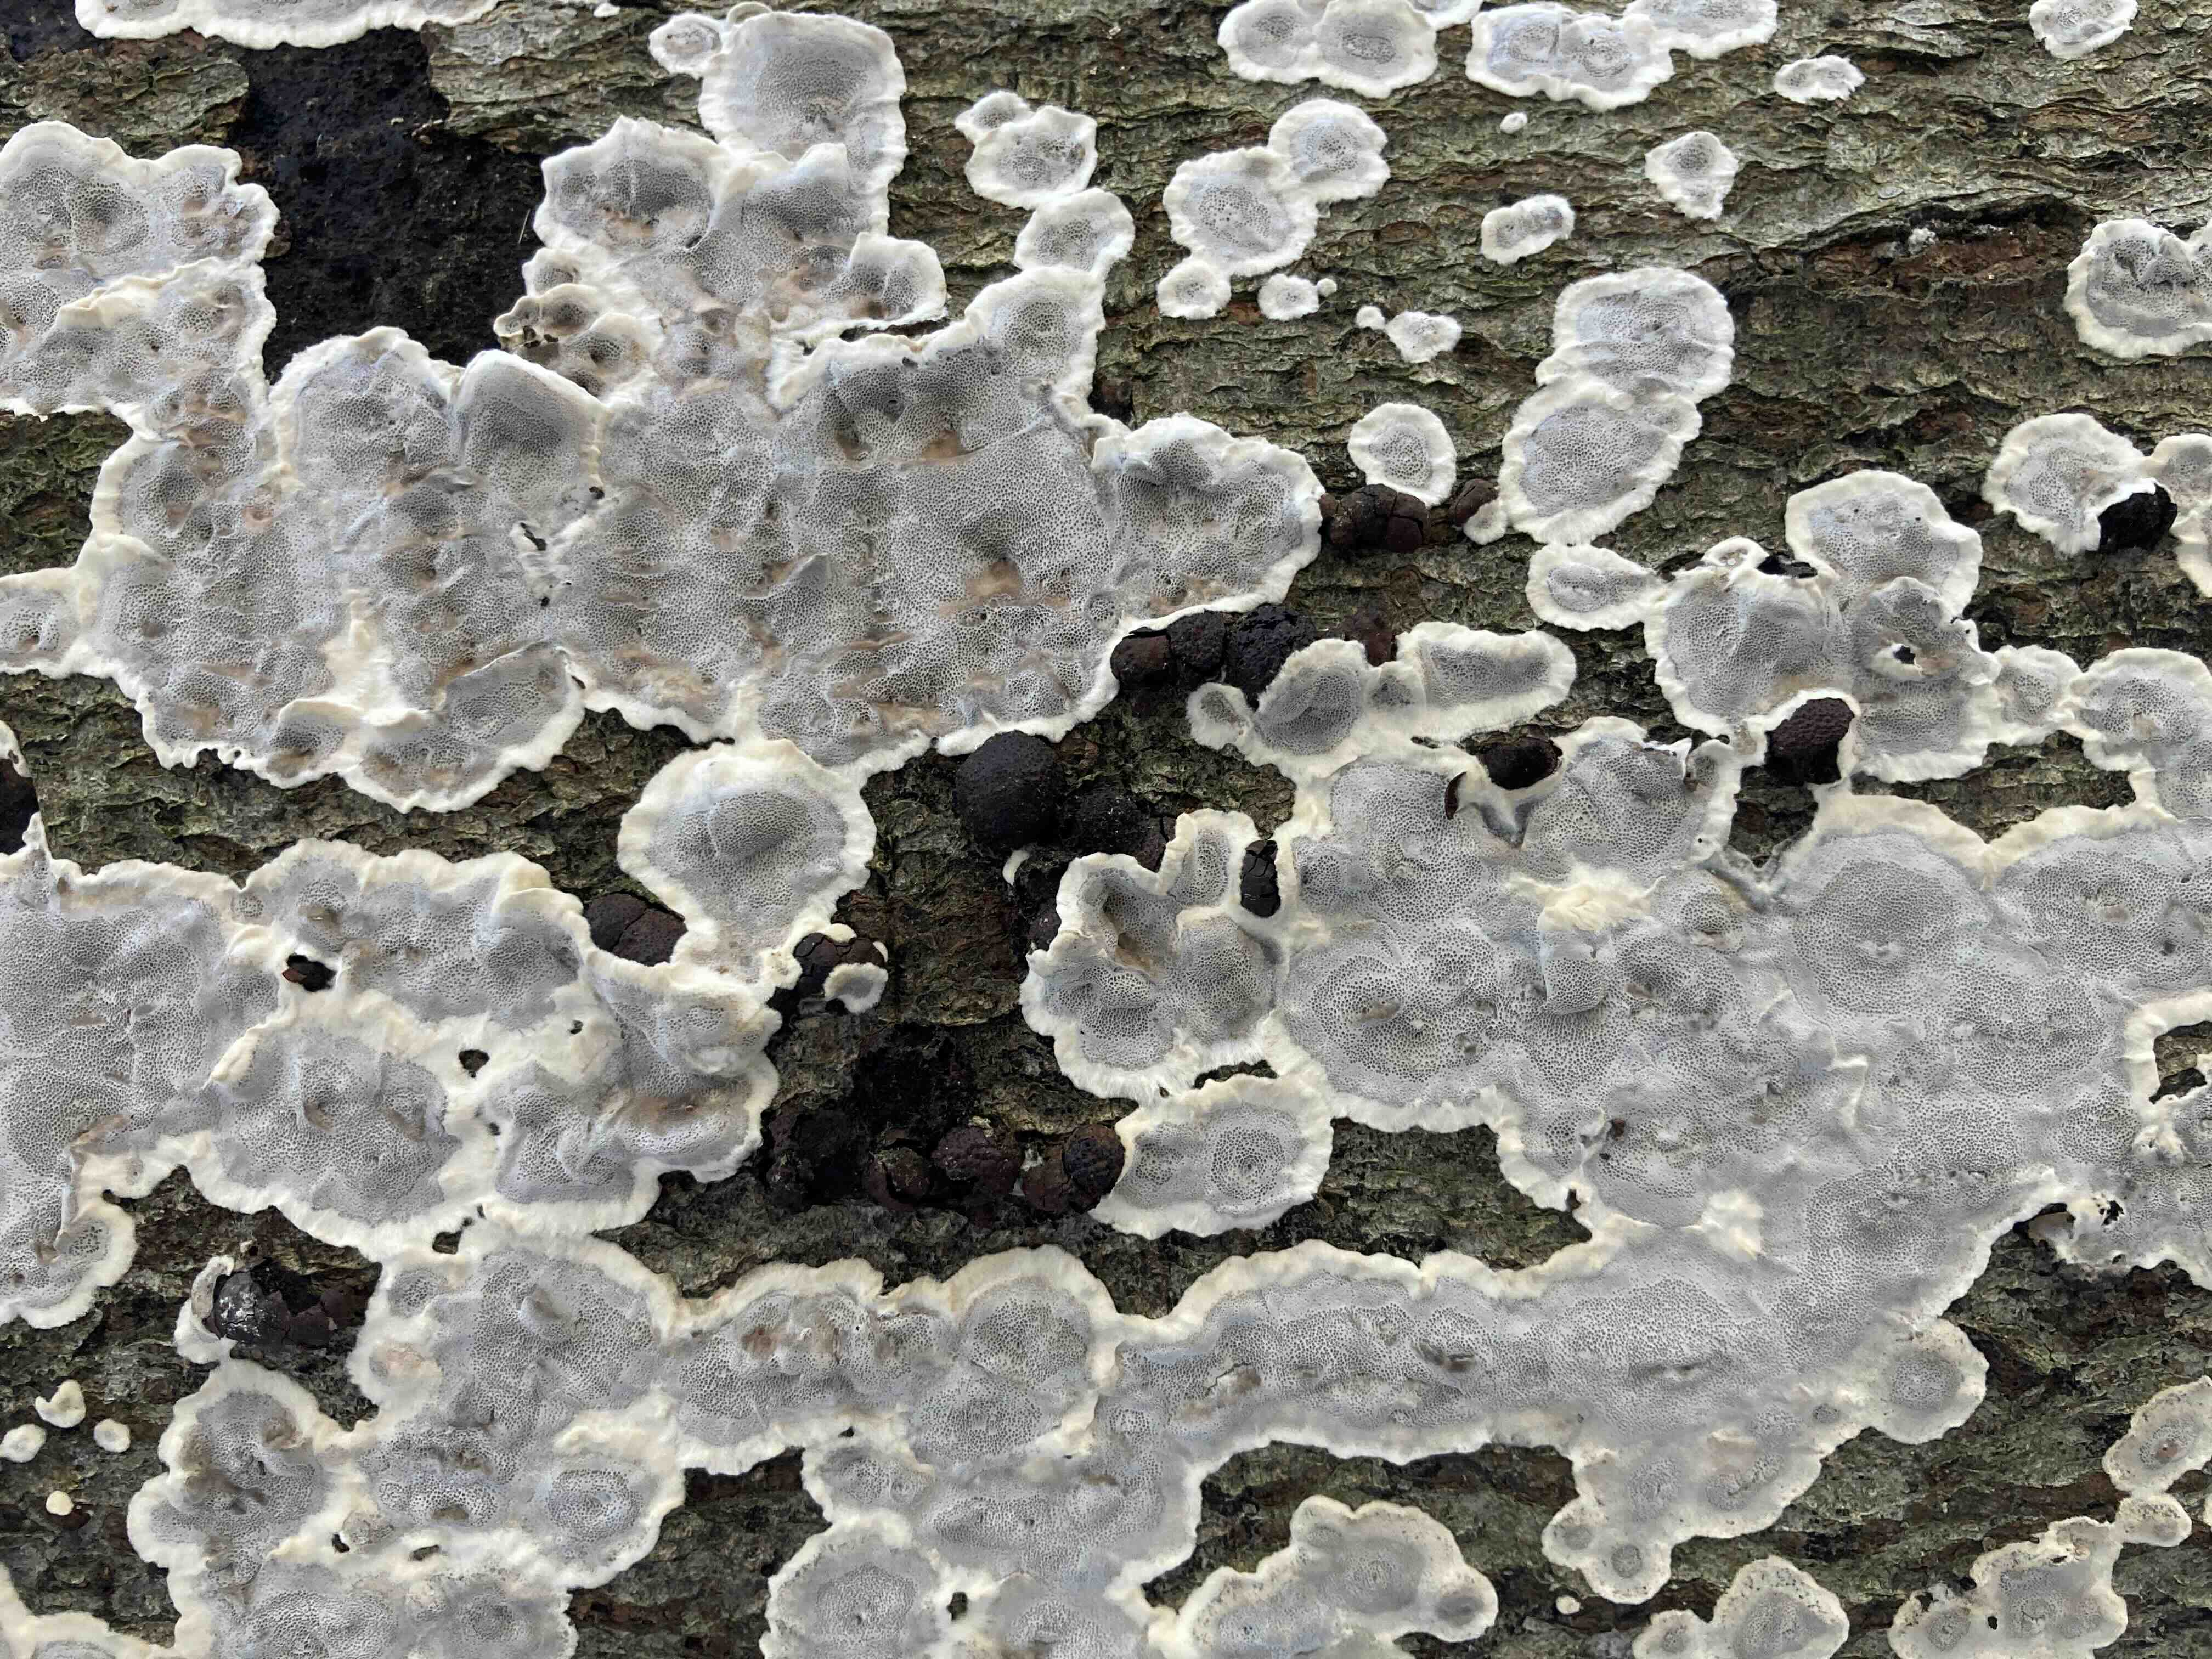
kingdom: Fungi
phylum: Basidiomycota
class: Agaricomycetes
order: Polyporales
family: Phanerochaetaceae
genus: Bjerkandera
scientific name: Bjerkandera adusta
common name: sveden sodporesvamp
